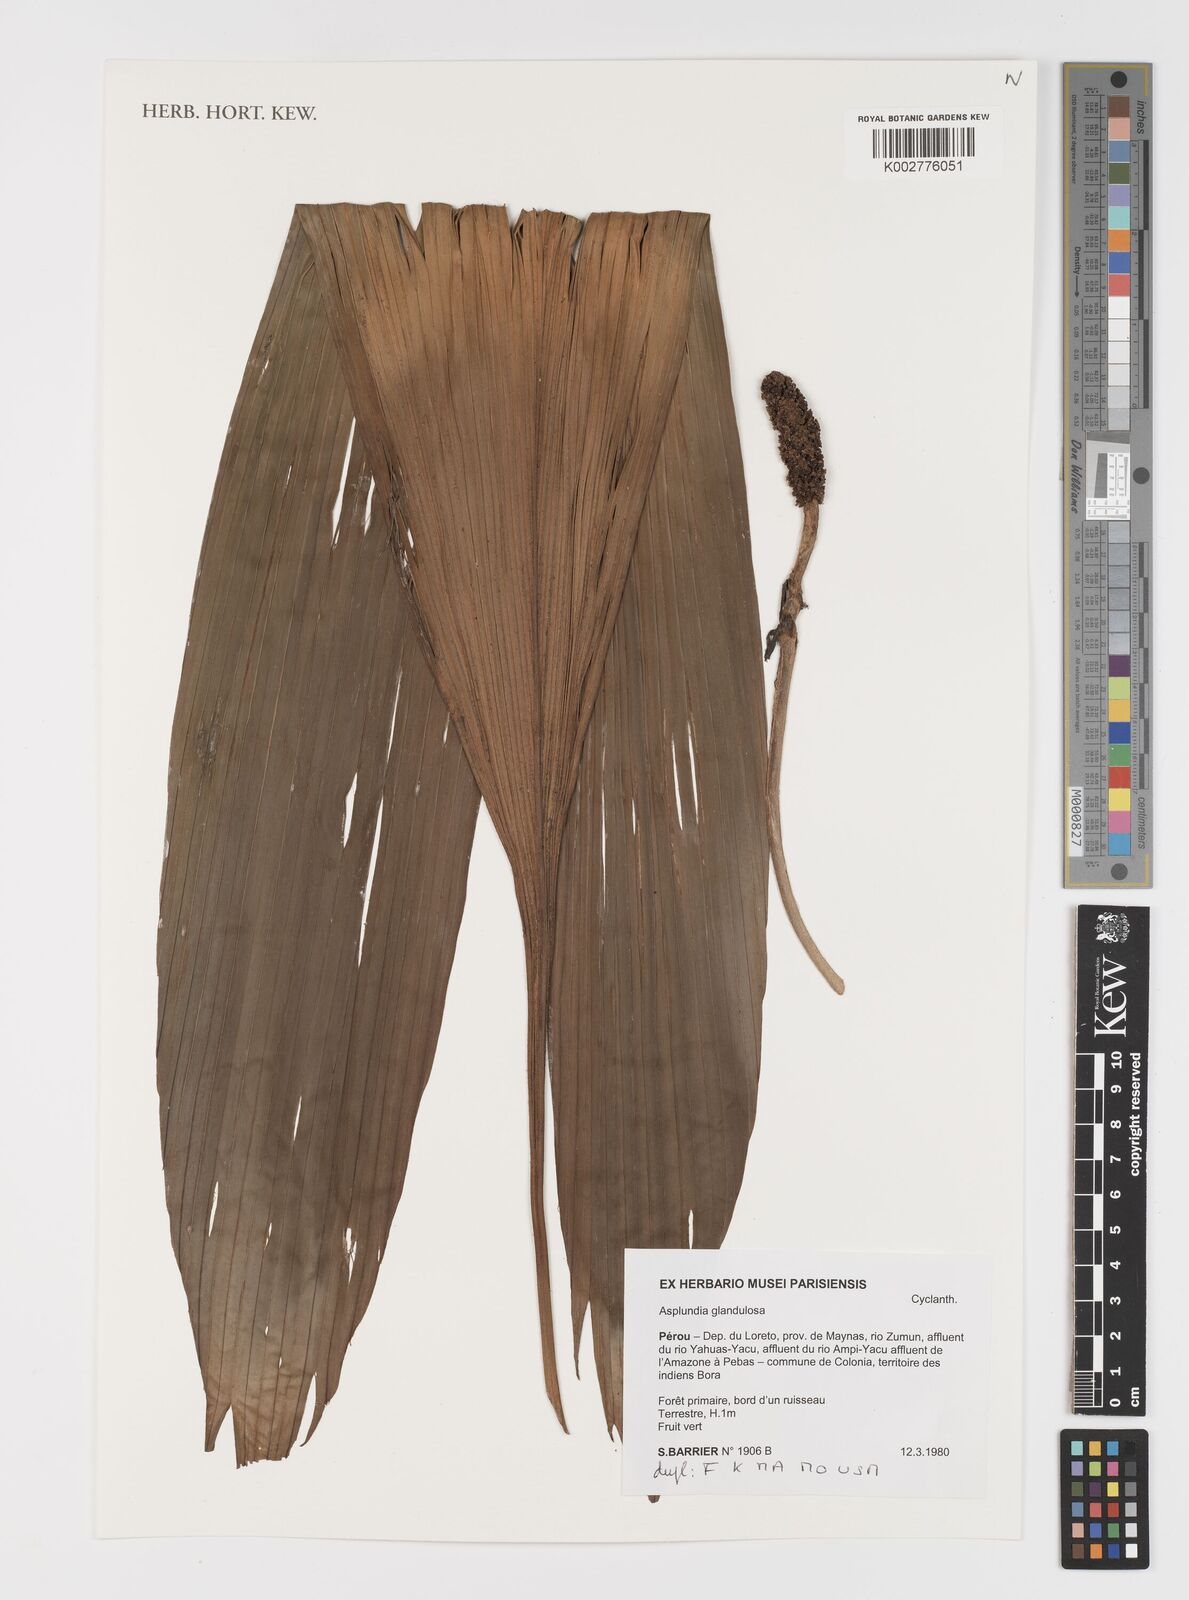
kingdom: Plantae
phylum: Tracheophyta
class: Liliopsida
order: Pandanales
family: Cyclanthaceae
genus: Asplundia
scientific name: Asplundia glandulosa
